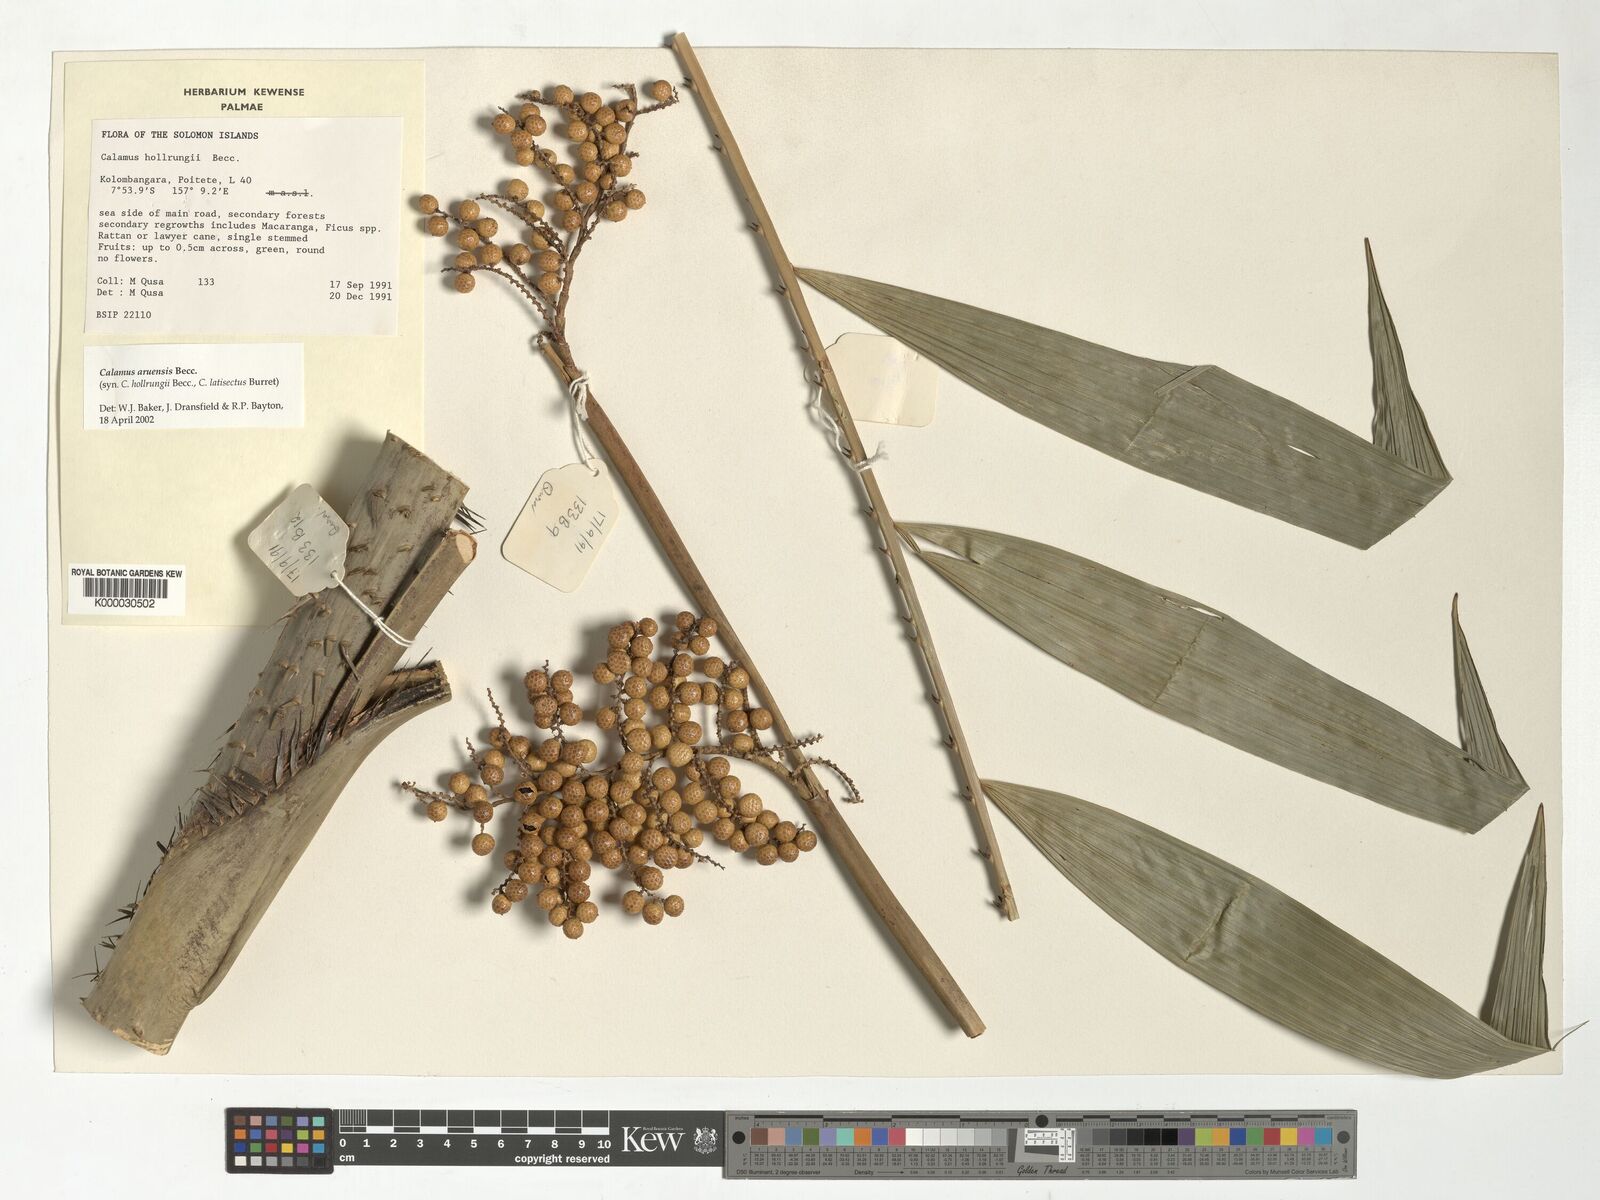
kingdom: Plantae
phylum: Tracheophyta
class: Liliopsida
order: Arecales
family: Arecaceae
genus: Calamus
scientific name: Calamus aruensis
